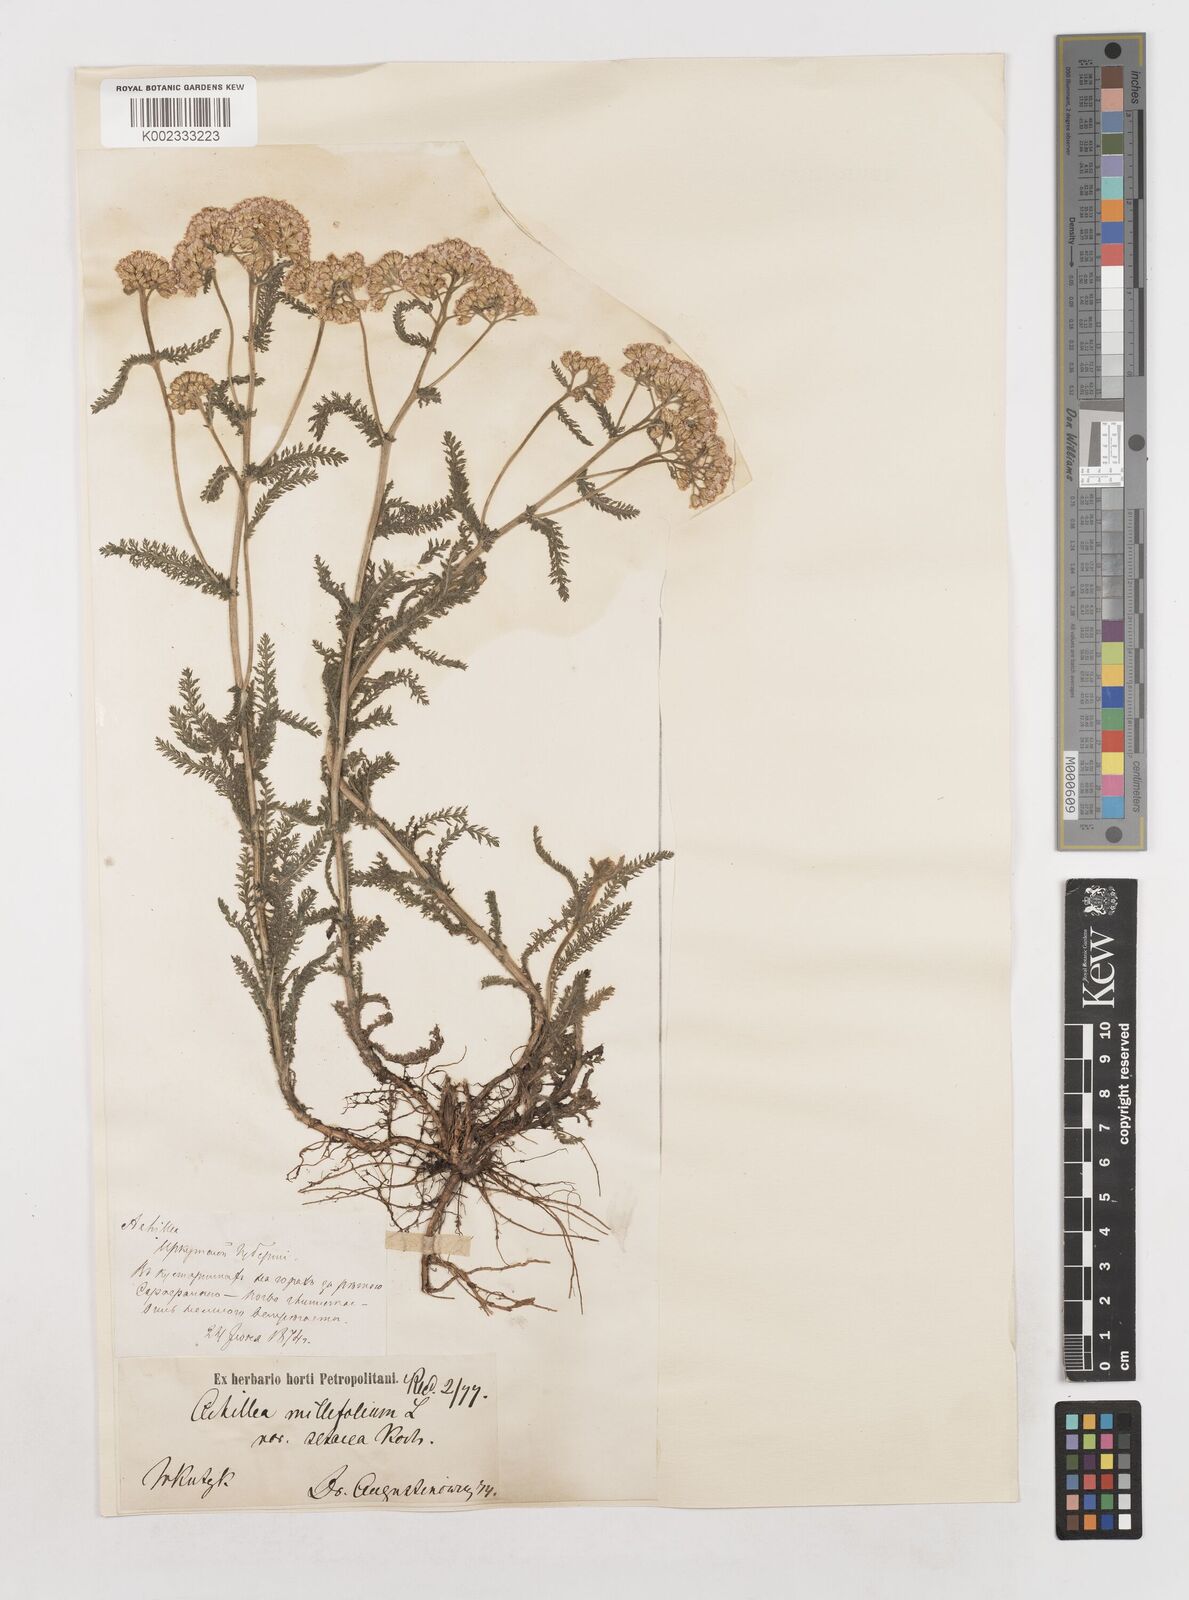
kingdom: Plantae
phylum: Tracheophyta
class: Magnoliopsida
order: Asterales
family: Asteraceae
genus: Achillea
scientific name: Achillea millefolium
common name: Yarrow
